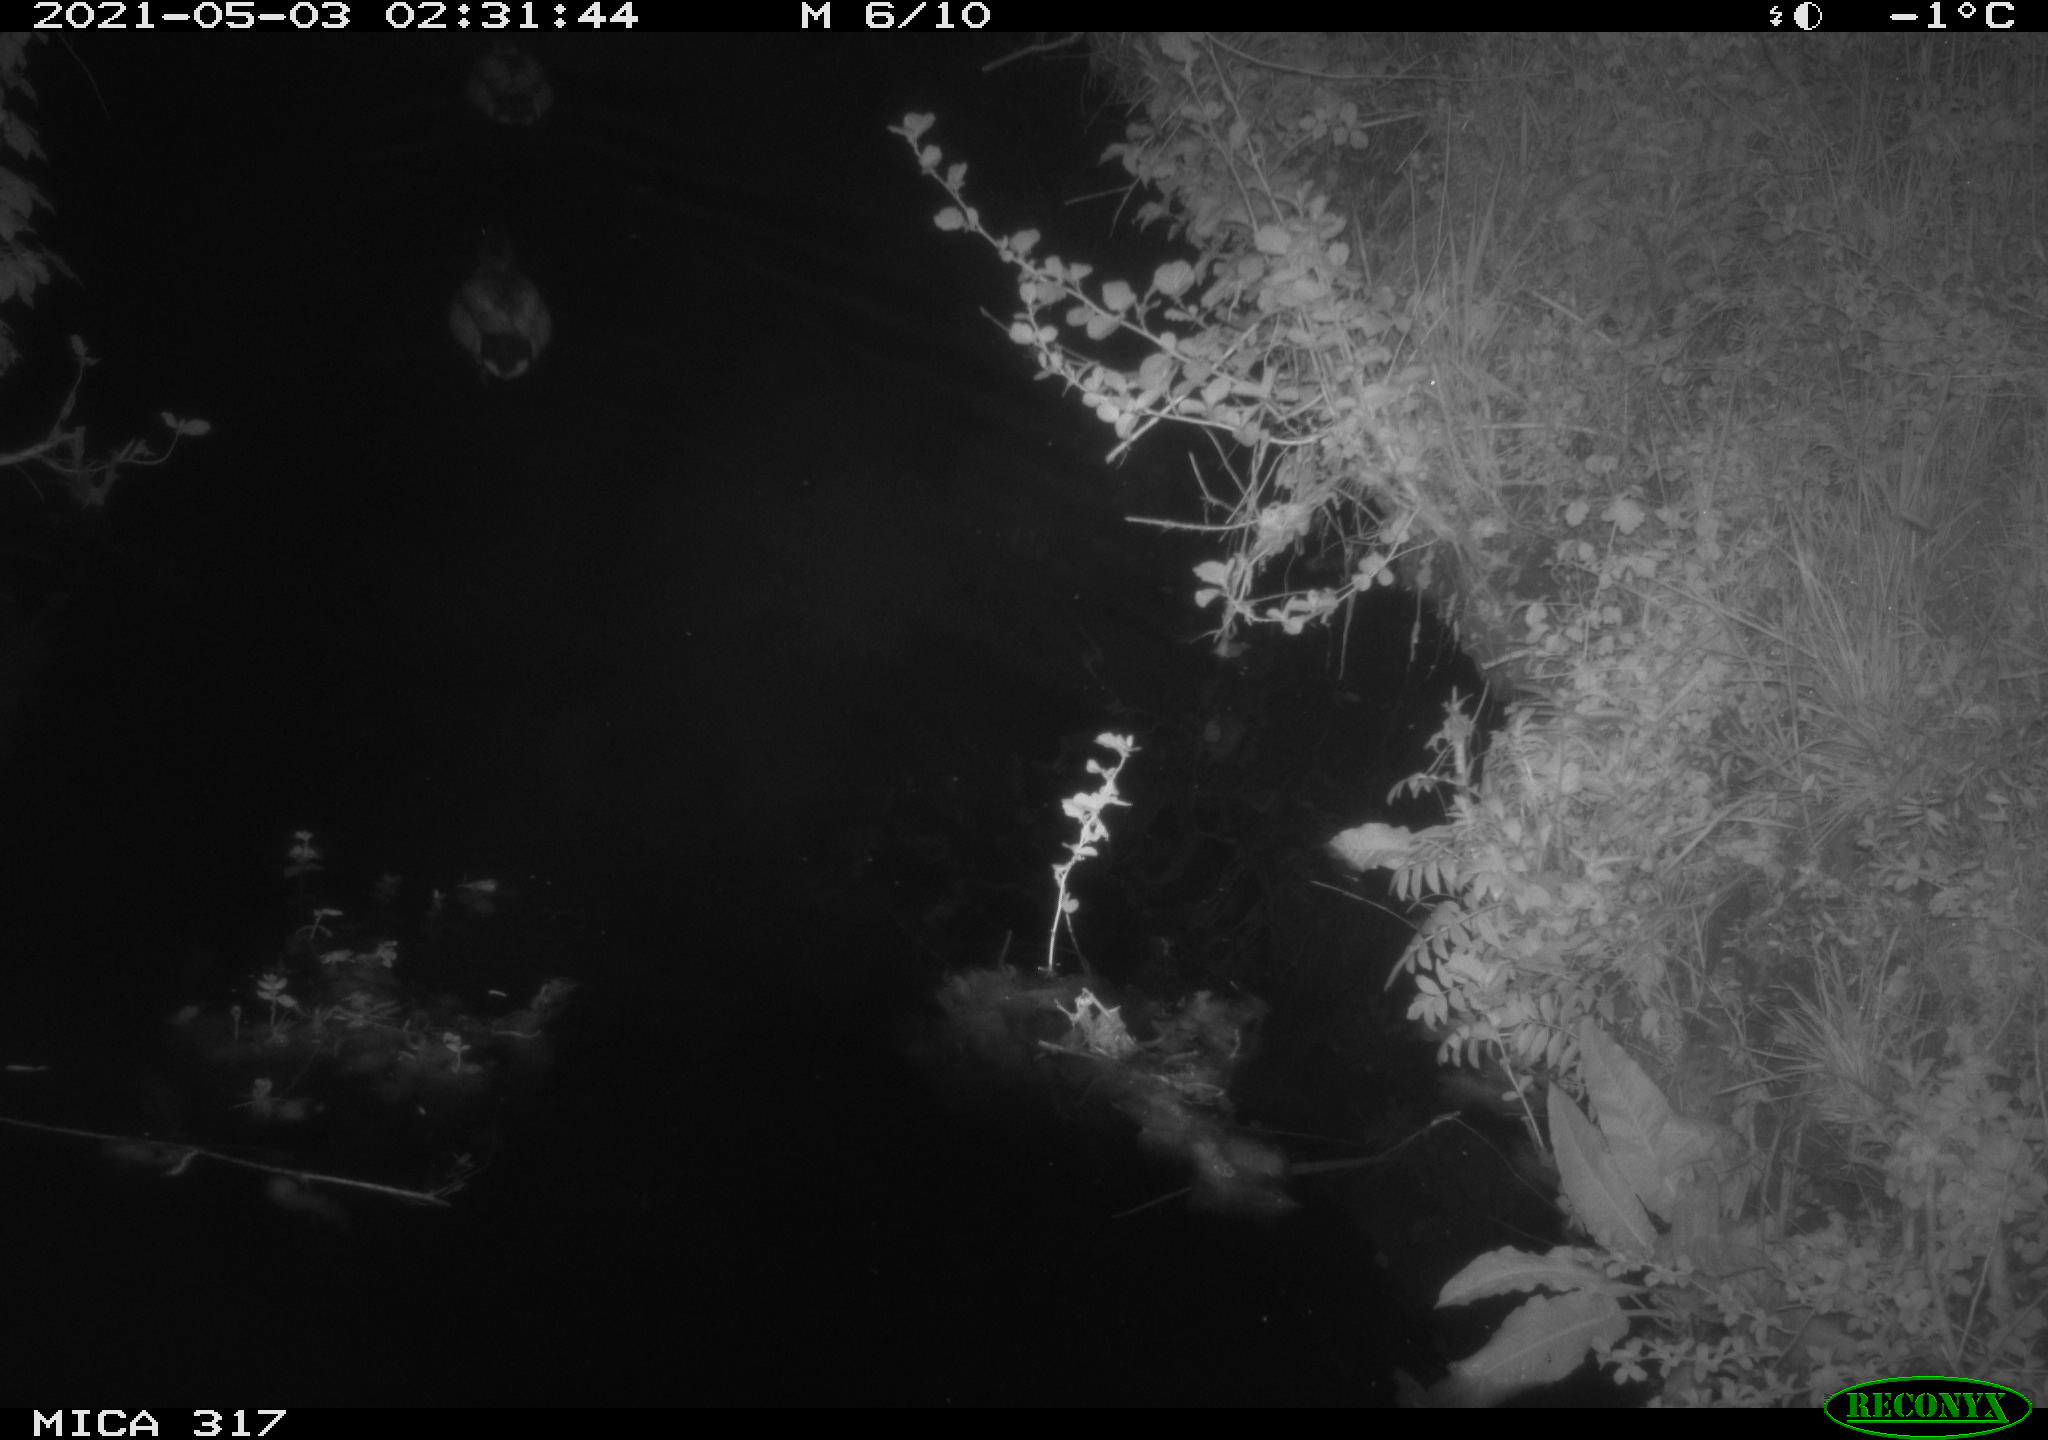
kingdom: Animalia
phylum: Chordata
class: Aves
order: Anseriformes
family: Anatidae
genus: Anas
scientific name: Anas
